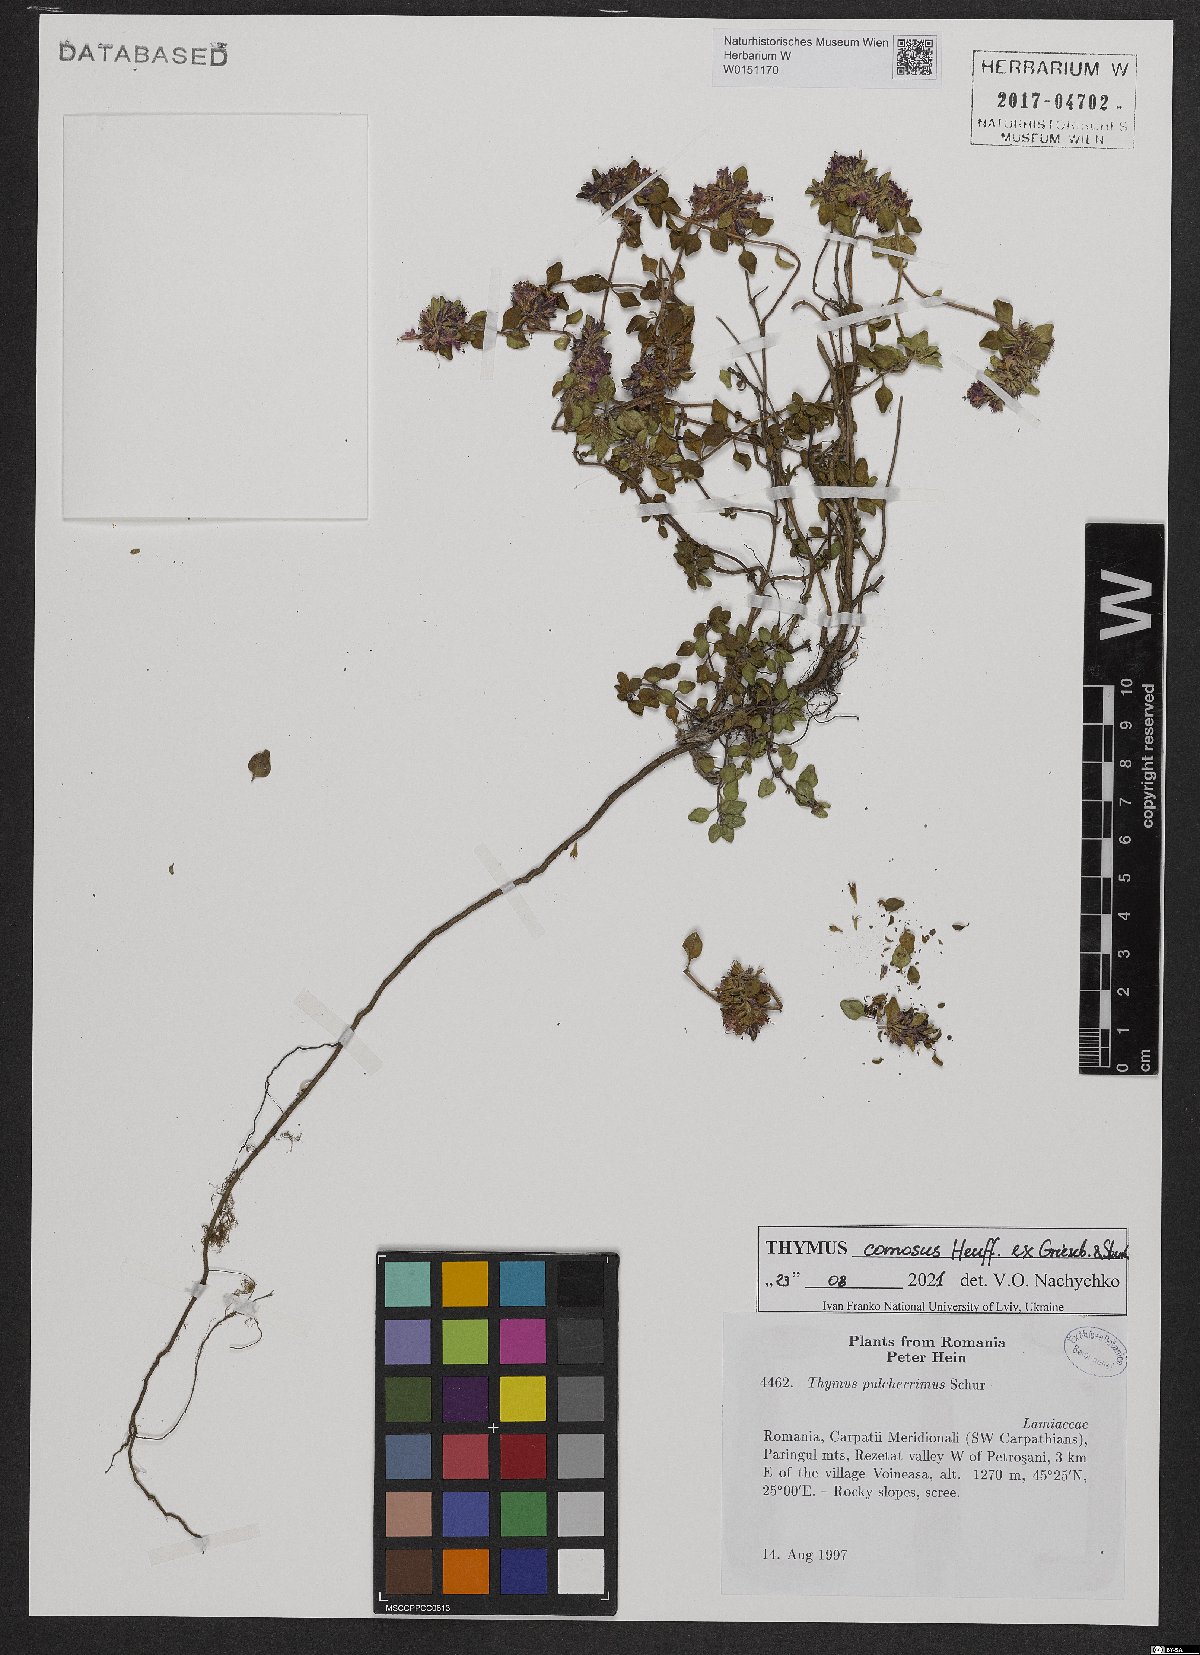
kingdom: Plantae
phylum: Tracheophyta
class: Magnoliopsida
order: Lamiales
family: Lamiaceae
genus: Thymus
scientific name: Thymus pulcherrimus
